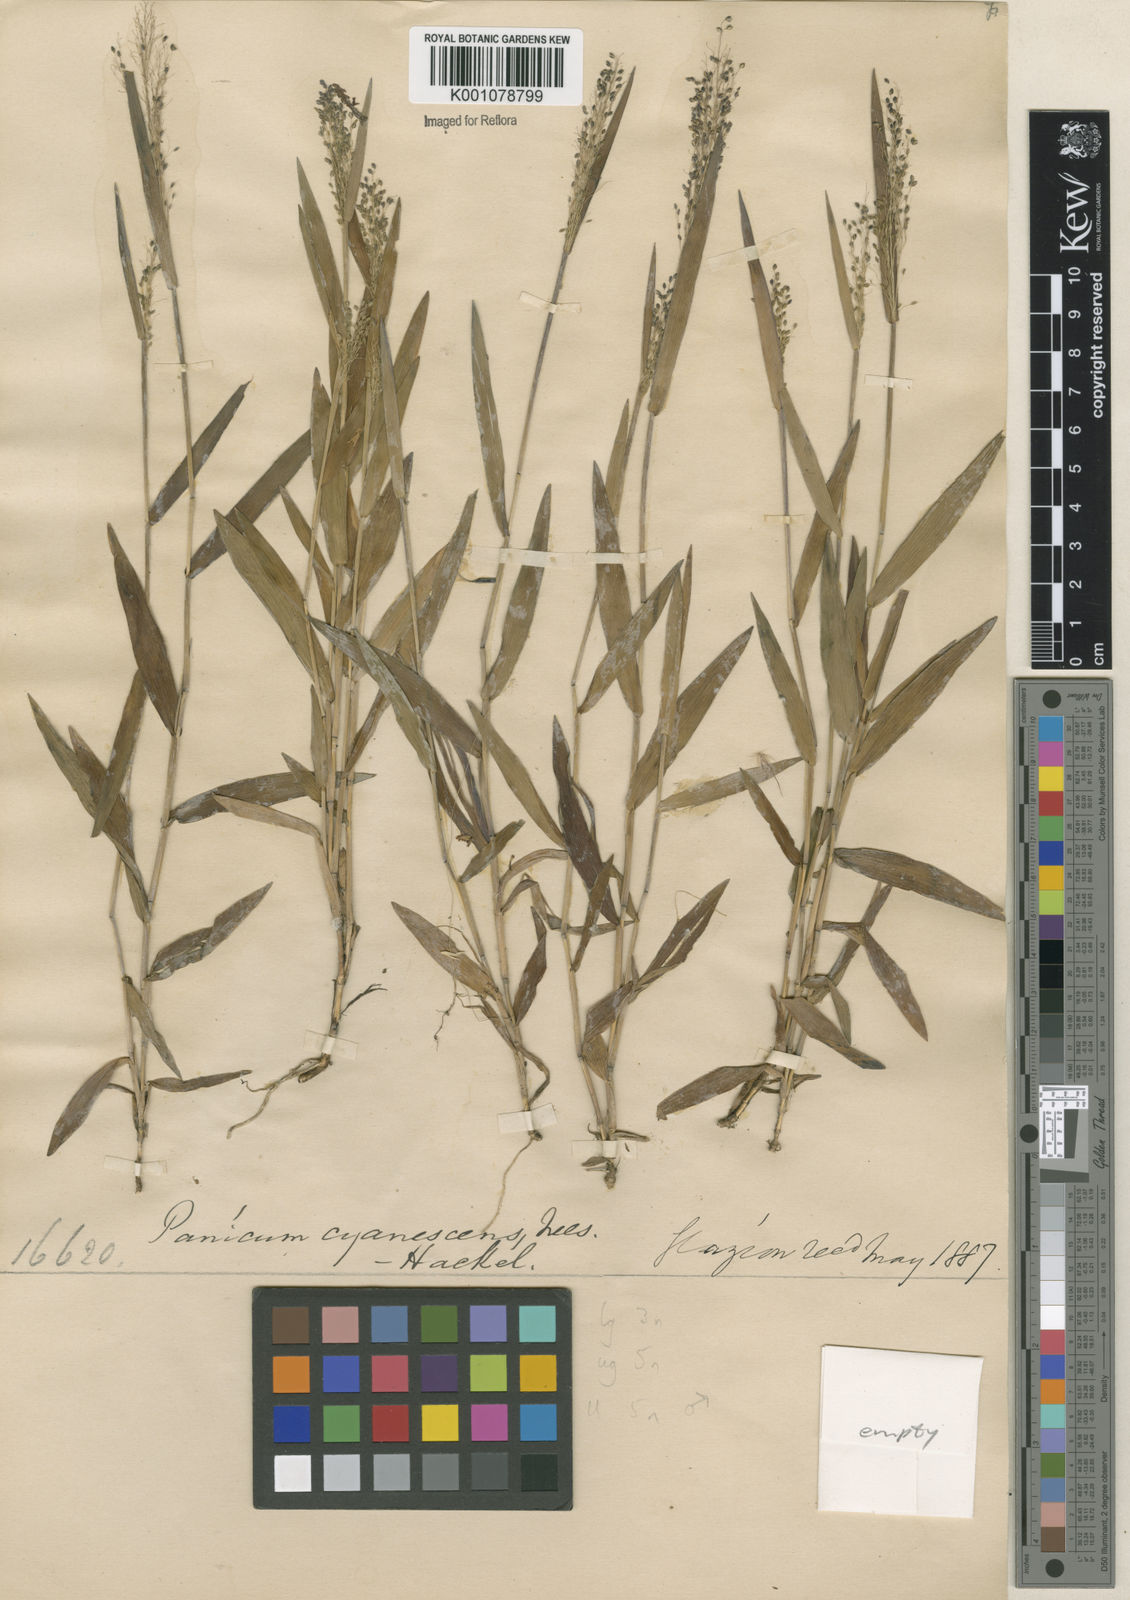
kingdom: Plantae
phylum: Tracheophyta
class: Liliopsida
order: Poales
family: Poaceae
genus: Trichanthecium
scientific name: Trichanthecium pseudisachne
